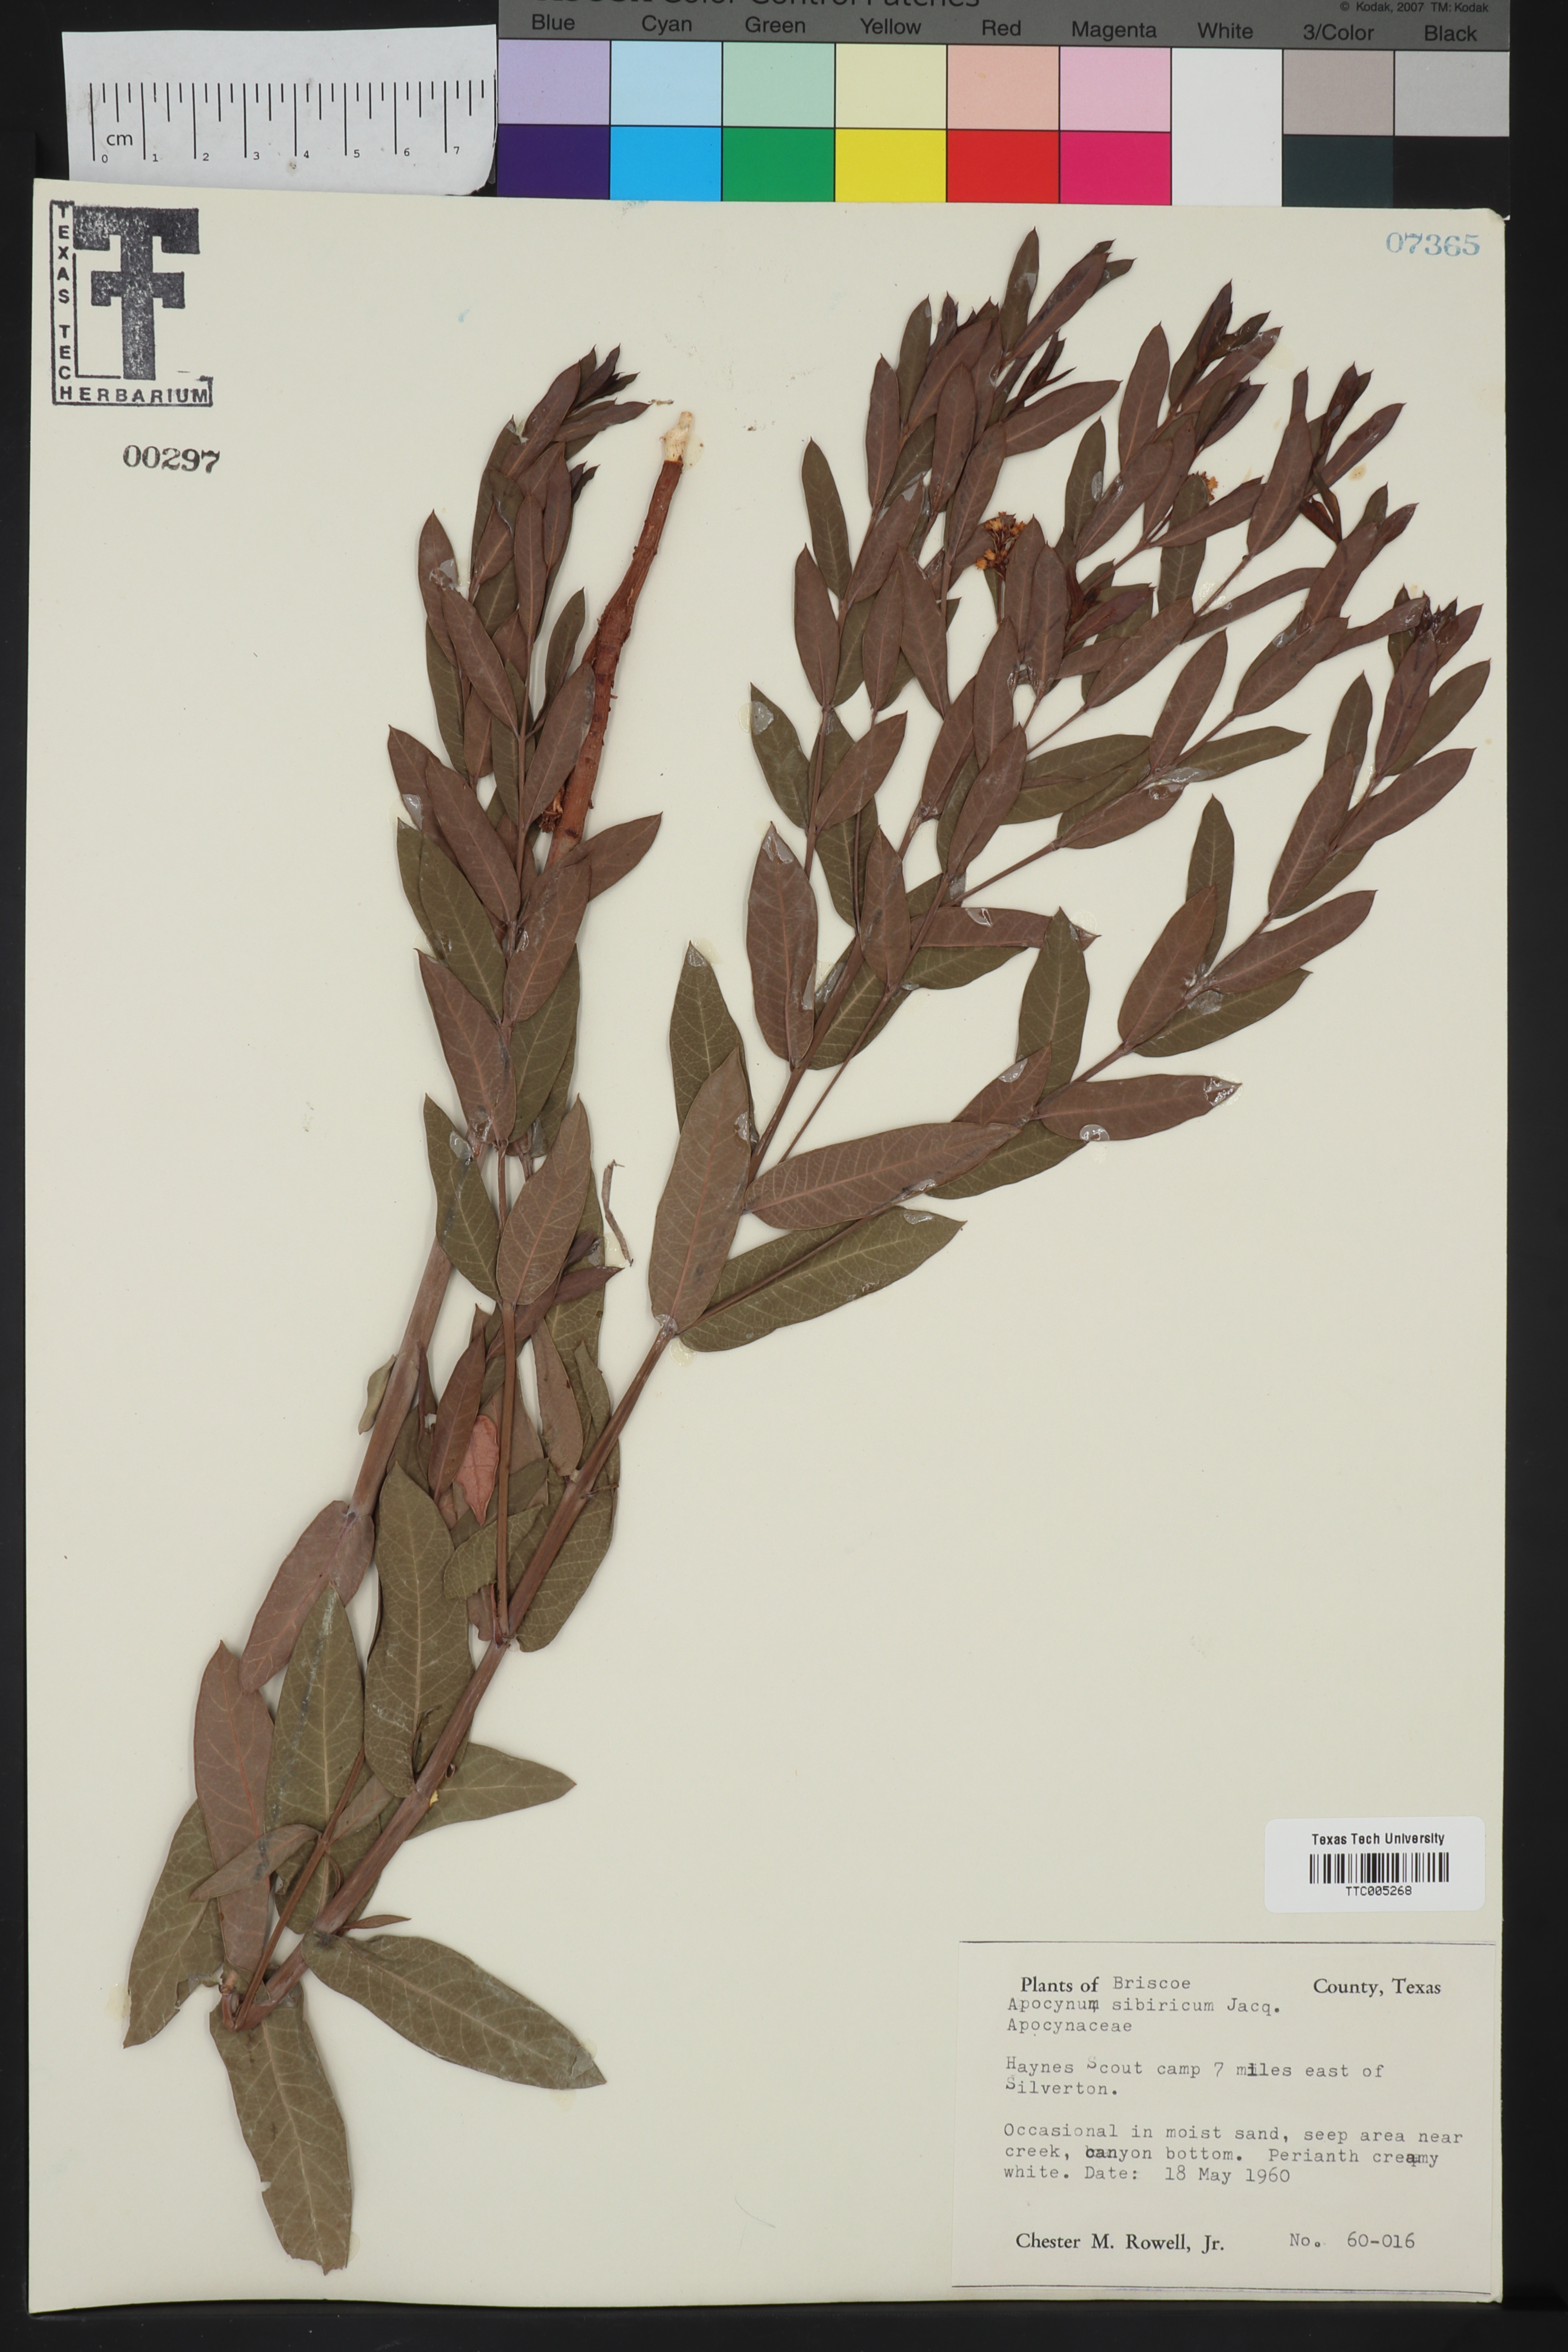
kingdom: Plantae
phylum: Tracheophyta
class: Magnoliopsida
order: Gentianales
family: Apocynaceae
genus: Apocynum
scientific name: Apocynum cannabinum
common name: Hemp dogbane
